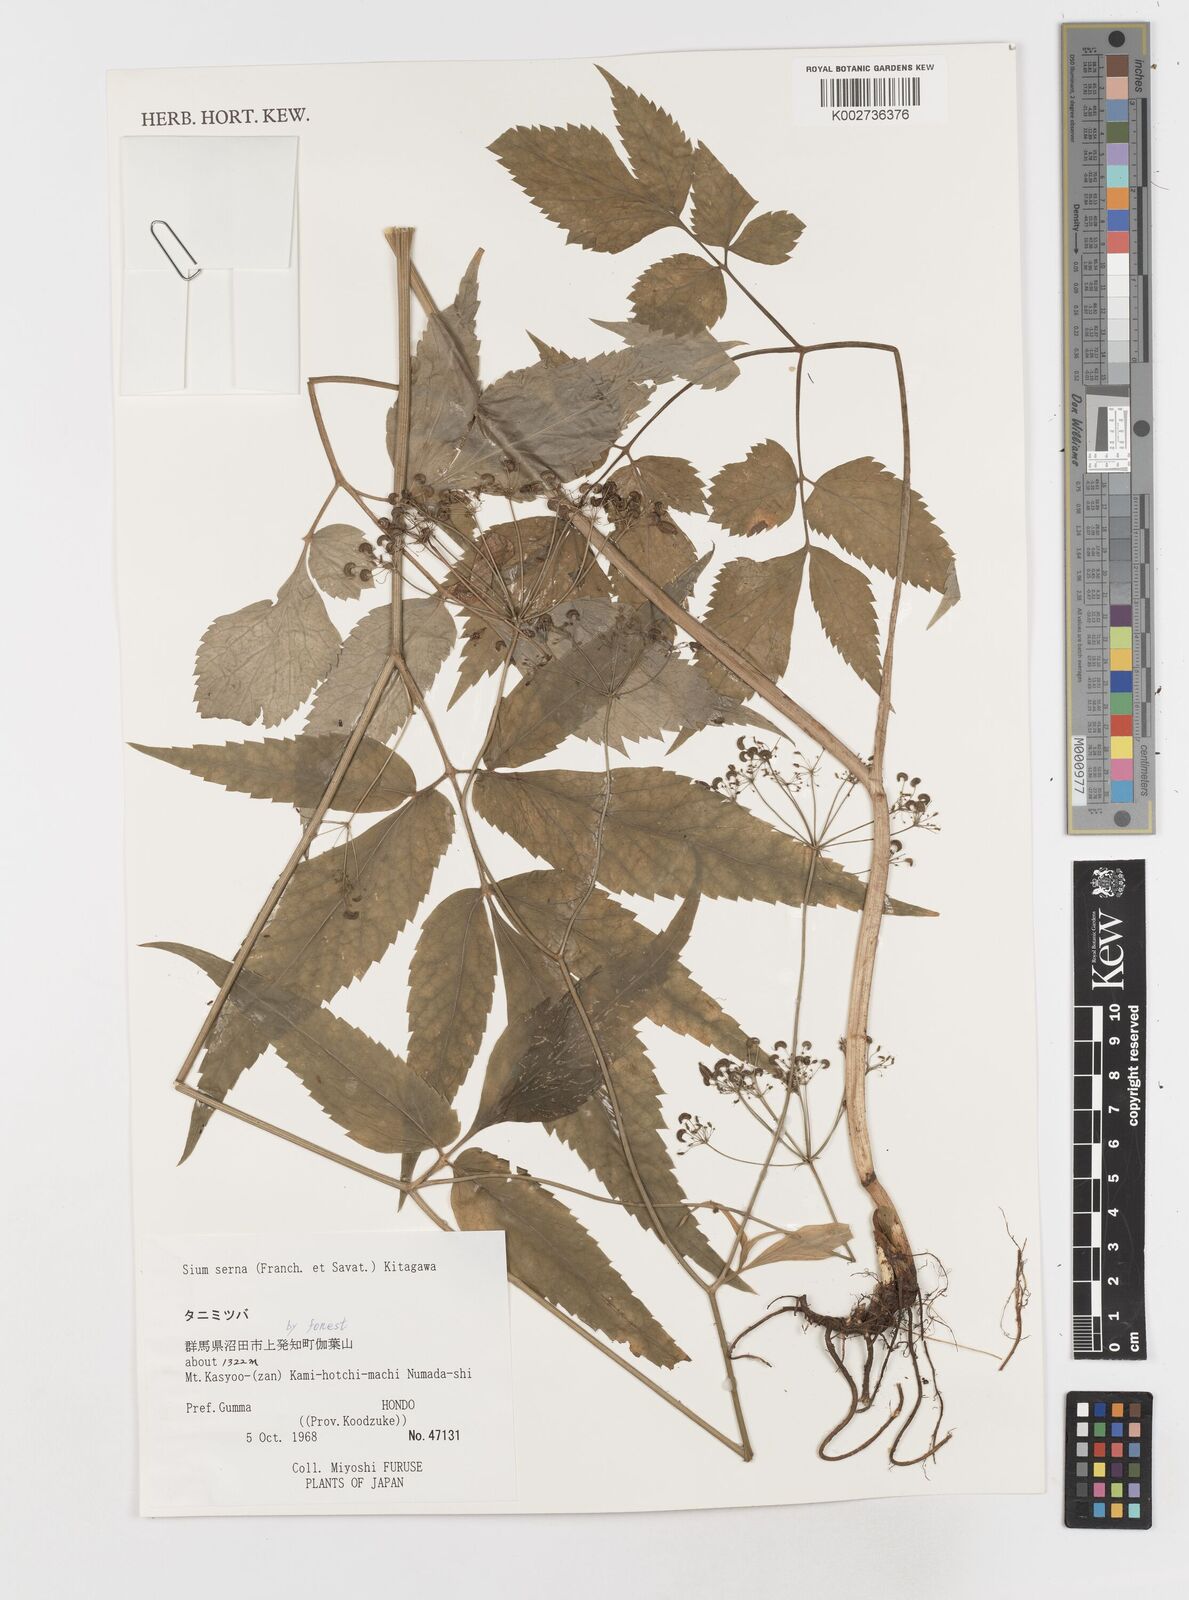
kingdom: Plantae
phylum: Tracheophyta
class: Magnoliopsida
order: Apiales
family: Apiaceae
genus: Sium
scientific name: Sium serra
